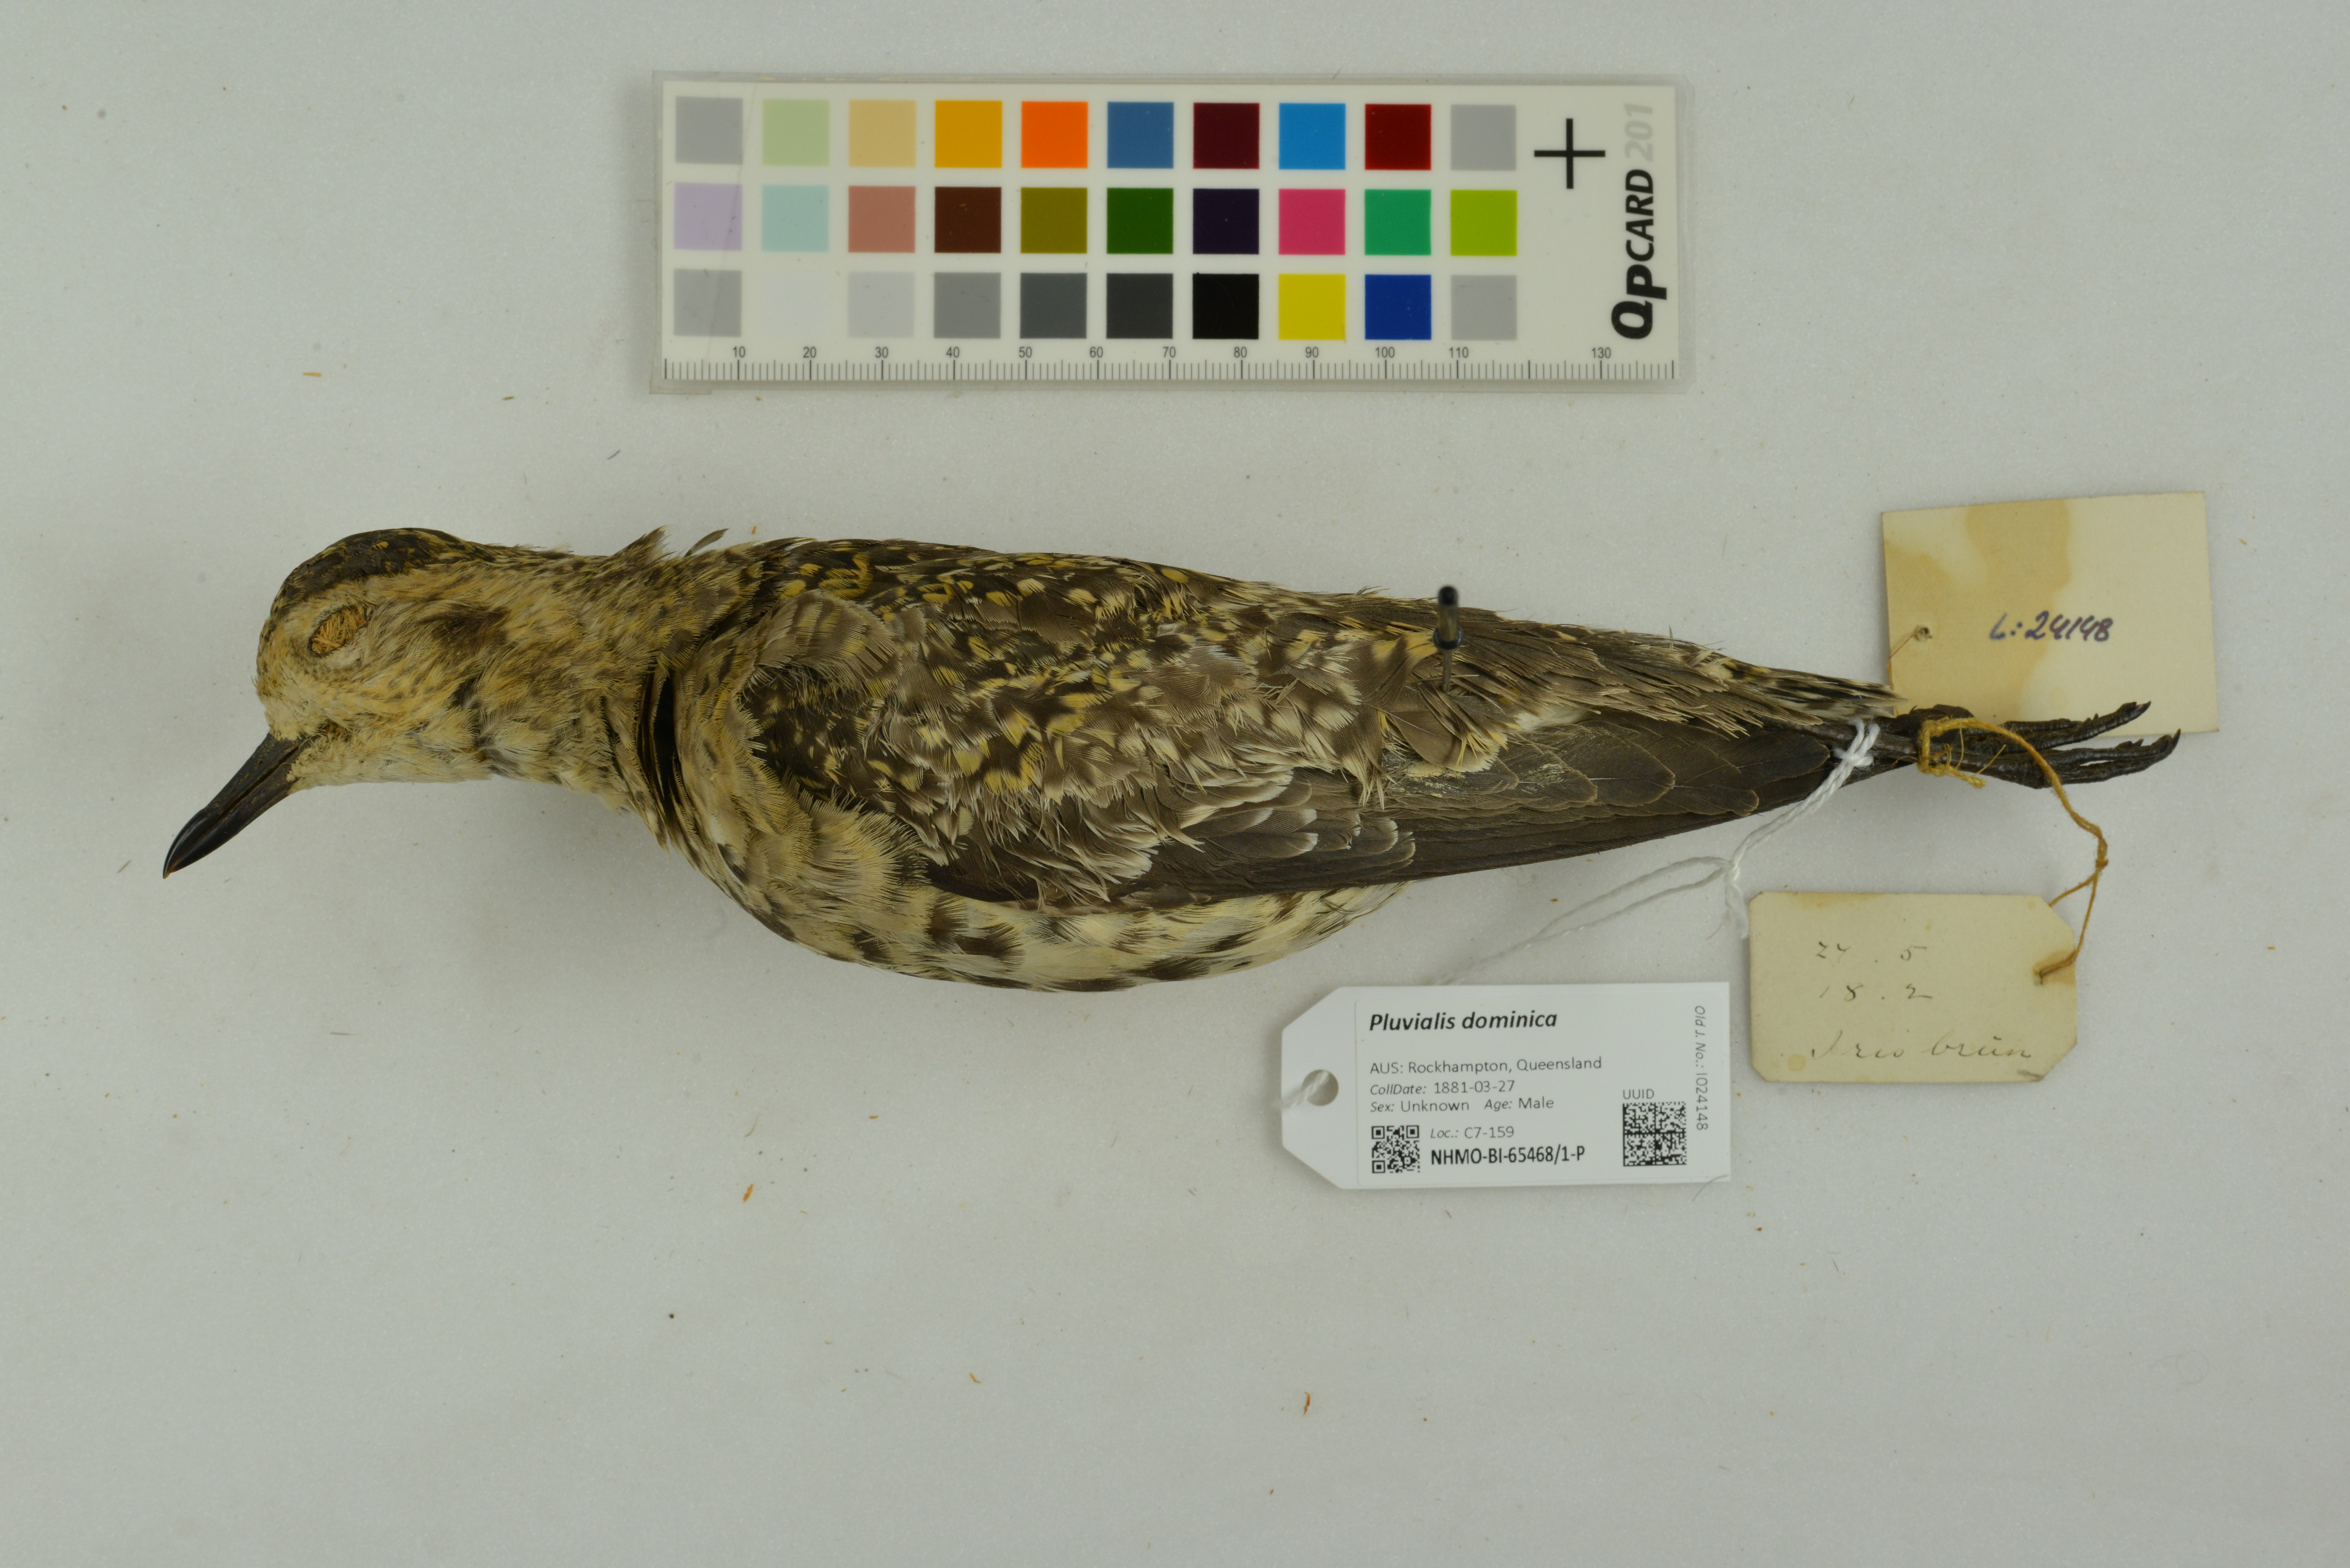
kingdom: Animalia
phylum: Chordata
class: Aves
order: Charadriiformes
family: Charadriidae
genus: Pluvialis
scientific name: Pluvialis dominica
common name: American golden plover
